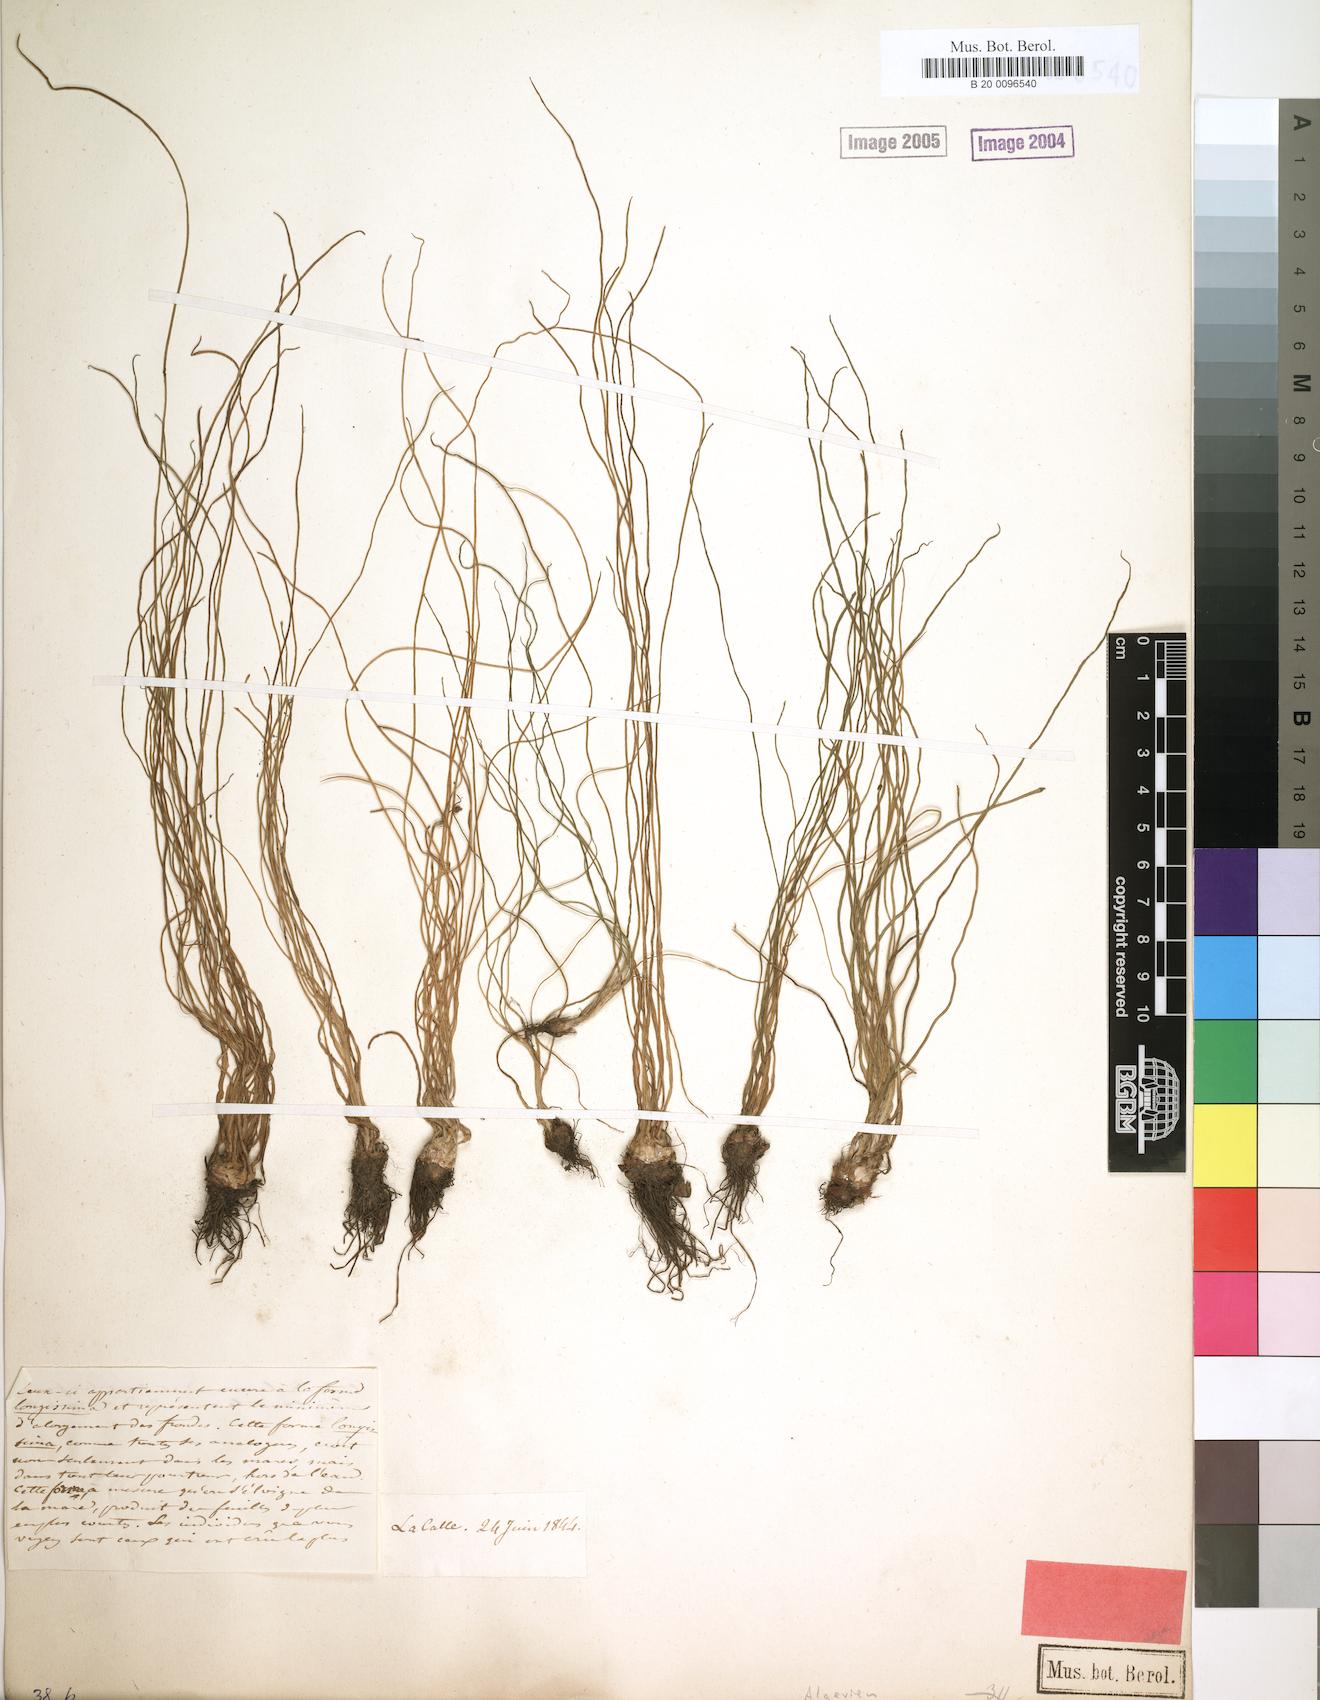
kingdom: Plantae
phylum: Tracheophyta
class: Lycopodiopsida
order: Isoetales
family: Isoetaceae
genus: Isoetes
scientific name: Isoetes longissima
